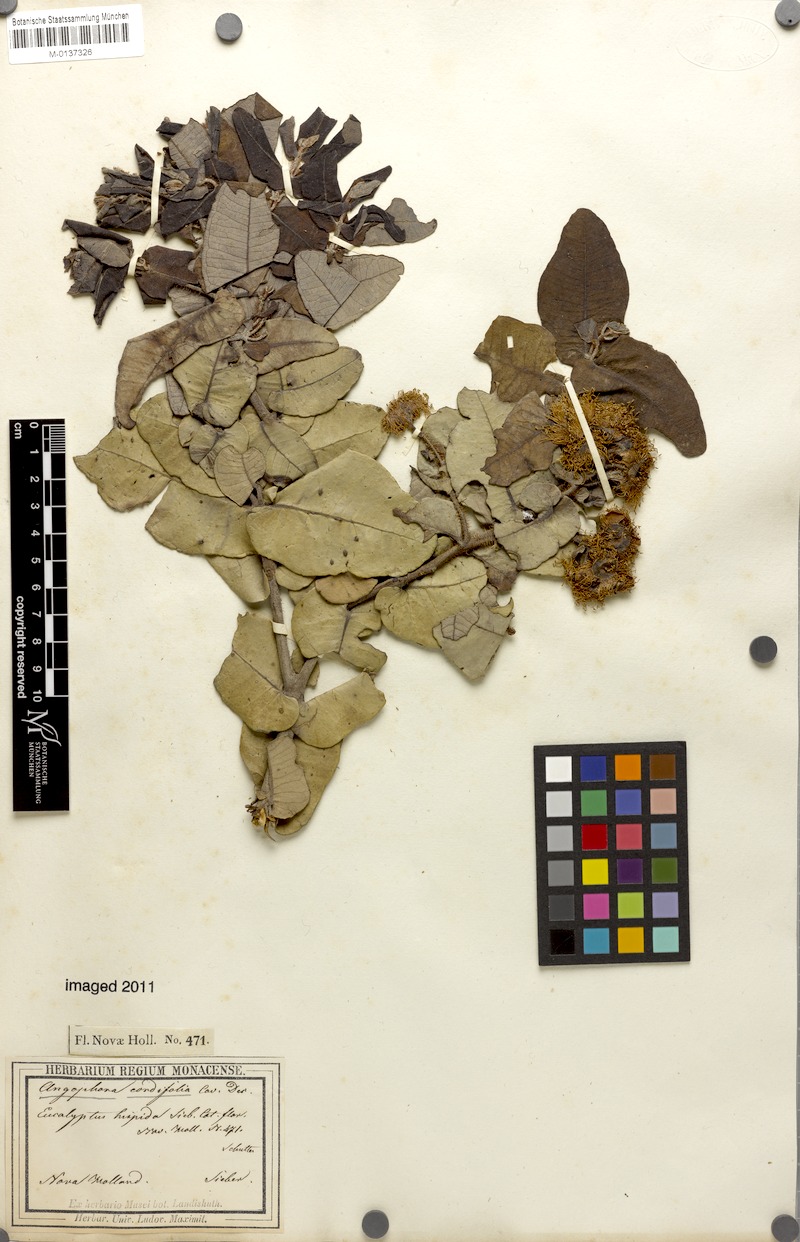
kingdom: Plantae
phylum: Tracheophyta
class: Magnoliopsida
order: Myrtales
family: Myrtaceae
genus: Angophora
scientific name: Angophora hispida
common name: Dwarf-apple
